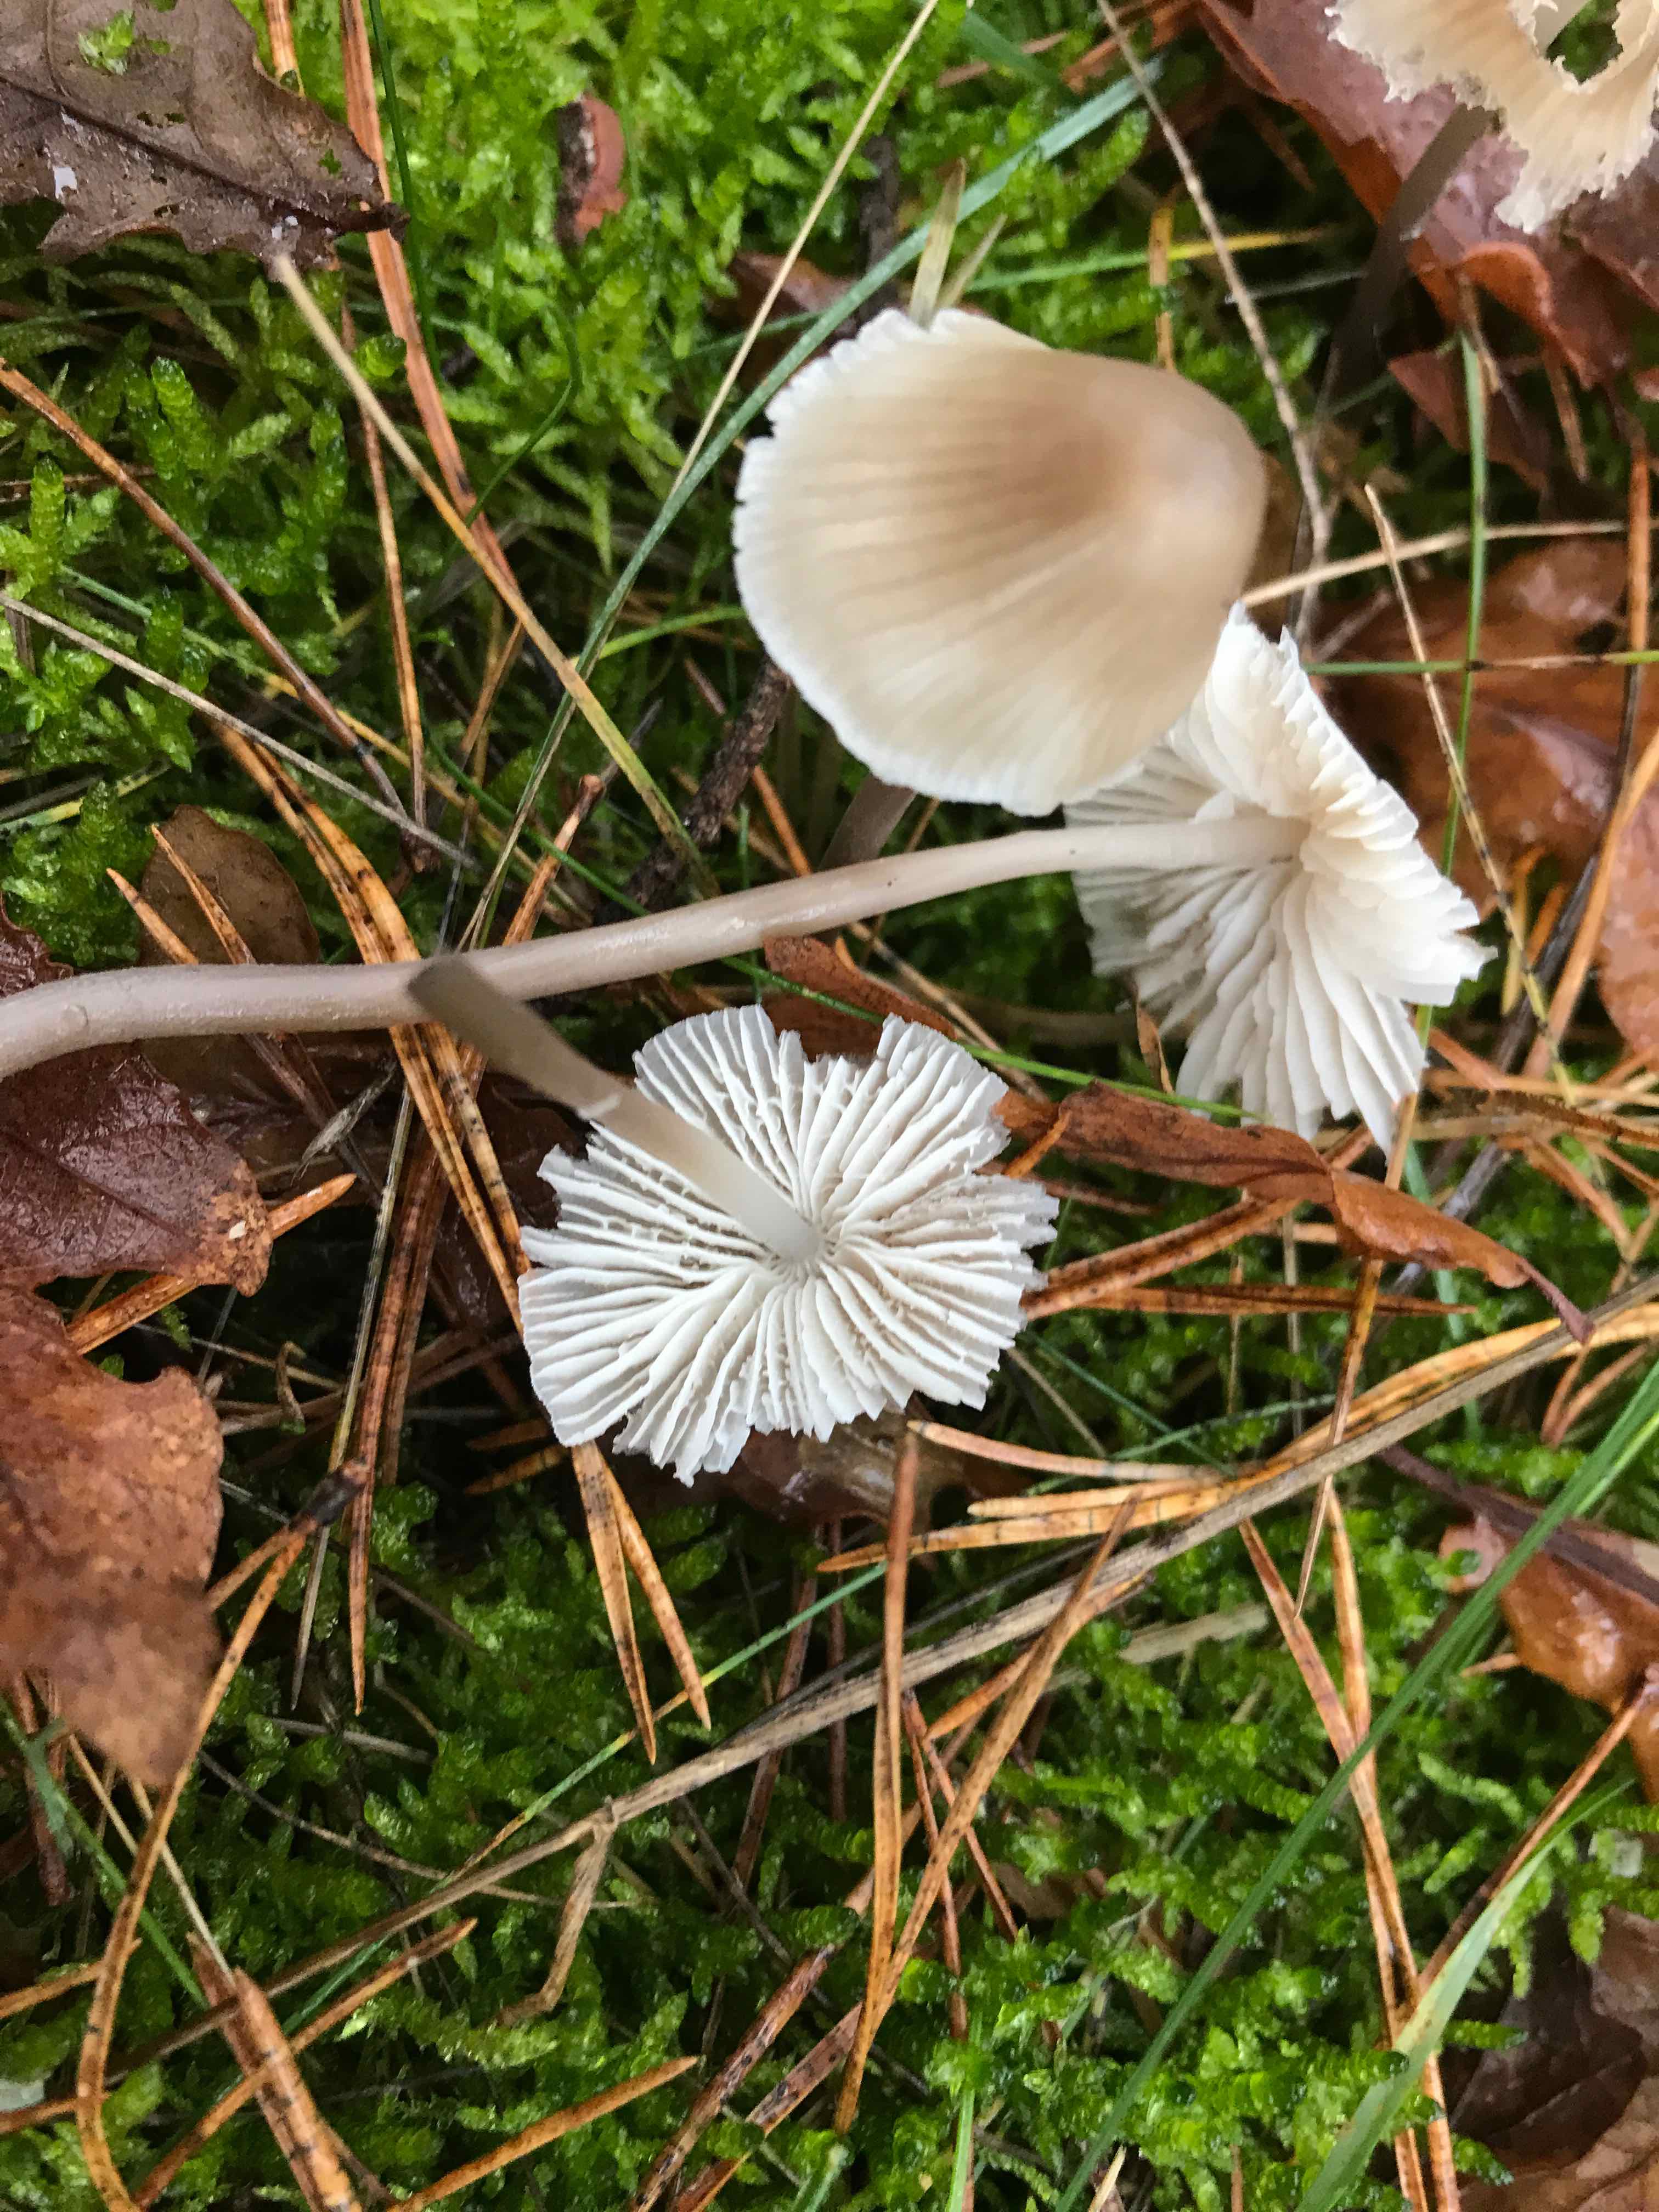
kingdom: Fungi
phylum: Basidiomycota
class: Agaricomycetes
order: Agaricales
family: Mycenaceae
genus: Mycena
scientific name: Mycena zephirus
